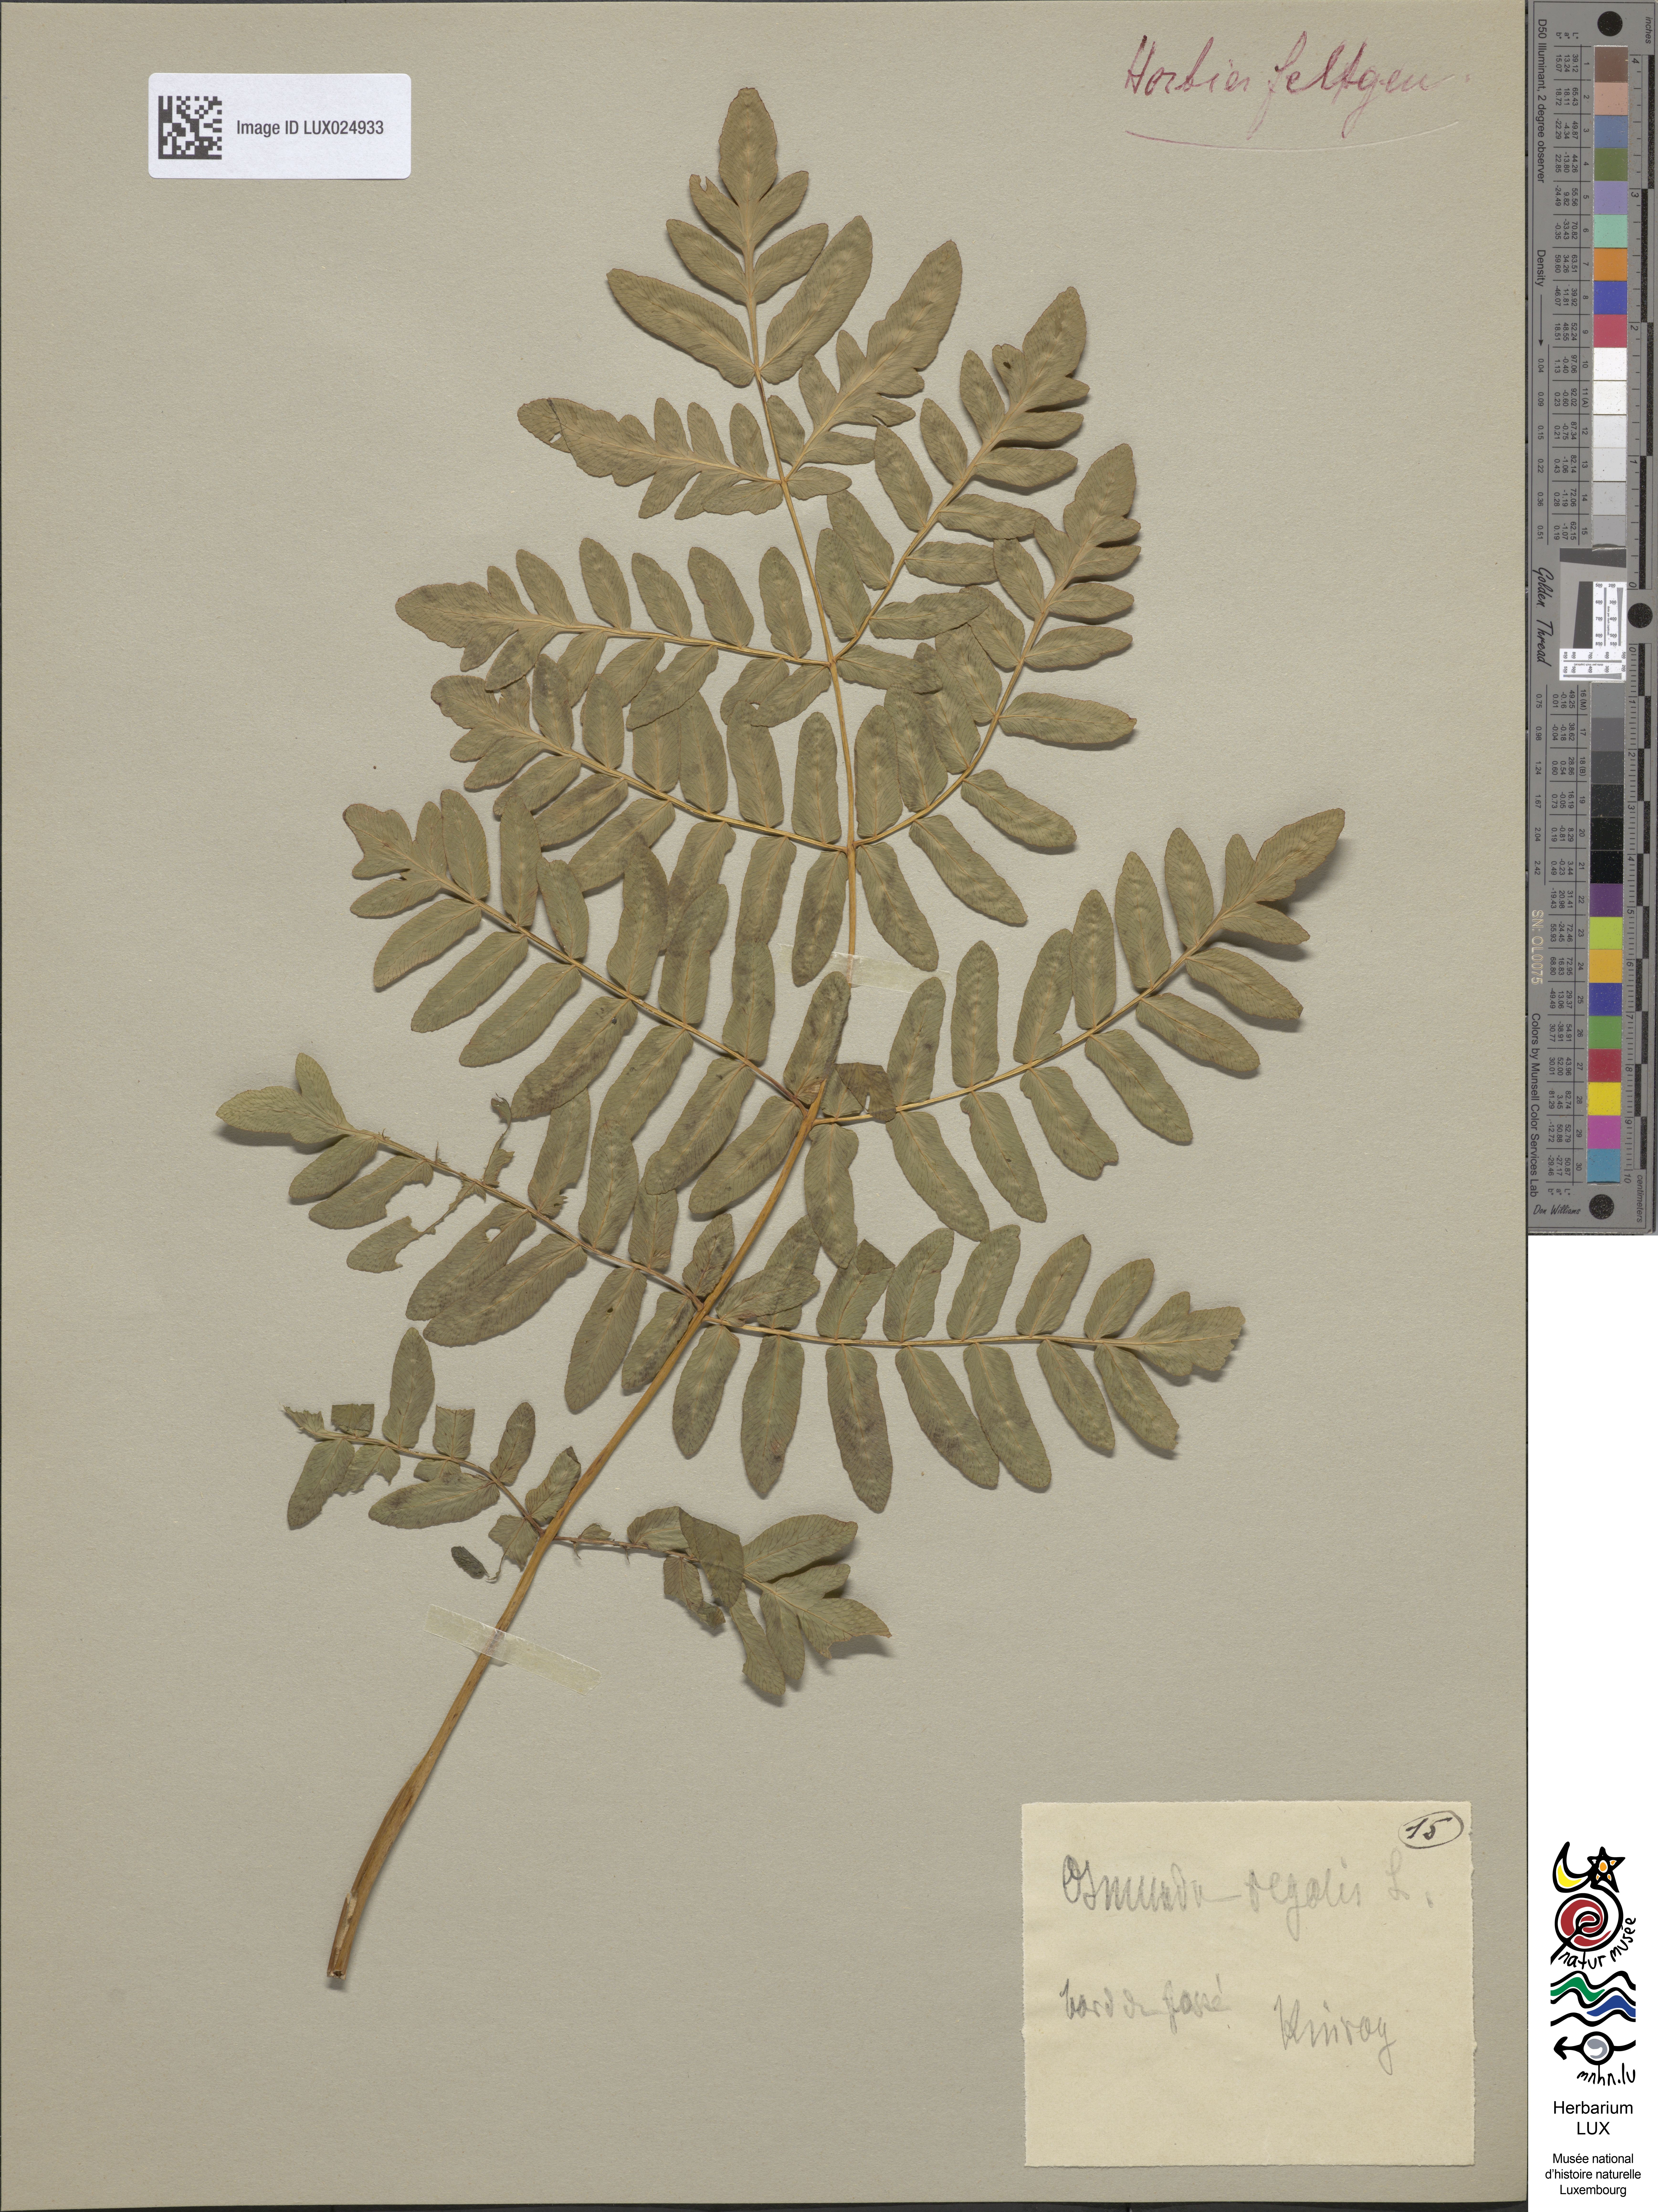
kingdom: Plantae
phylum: Tracheophyta
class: Polypodiopsida
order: Osmundales
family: Osmundaceae
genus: Osmunda
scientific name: Osmunda regalis
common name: Royal fern
